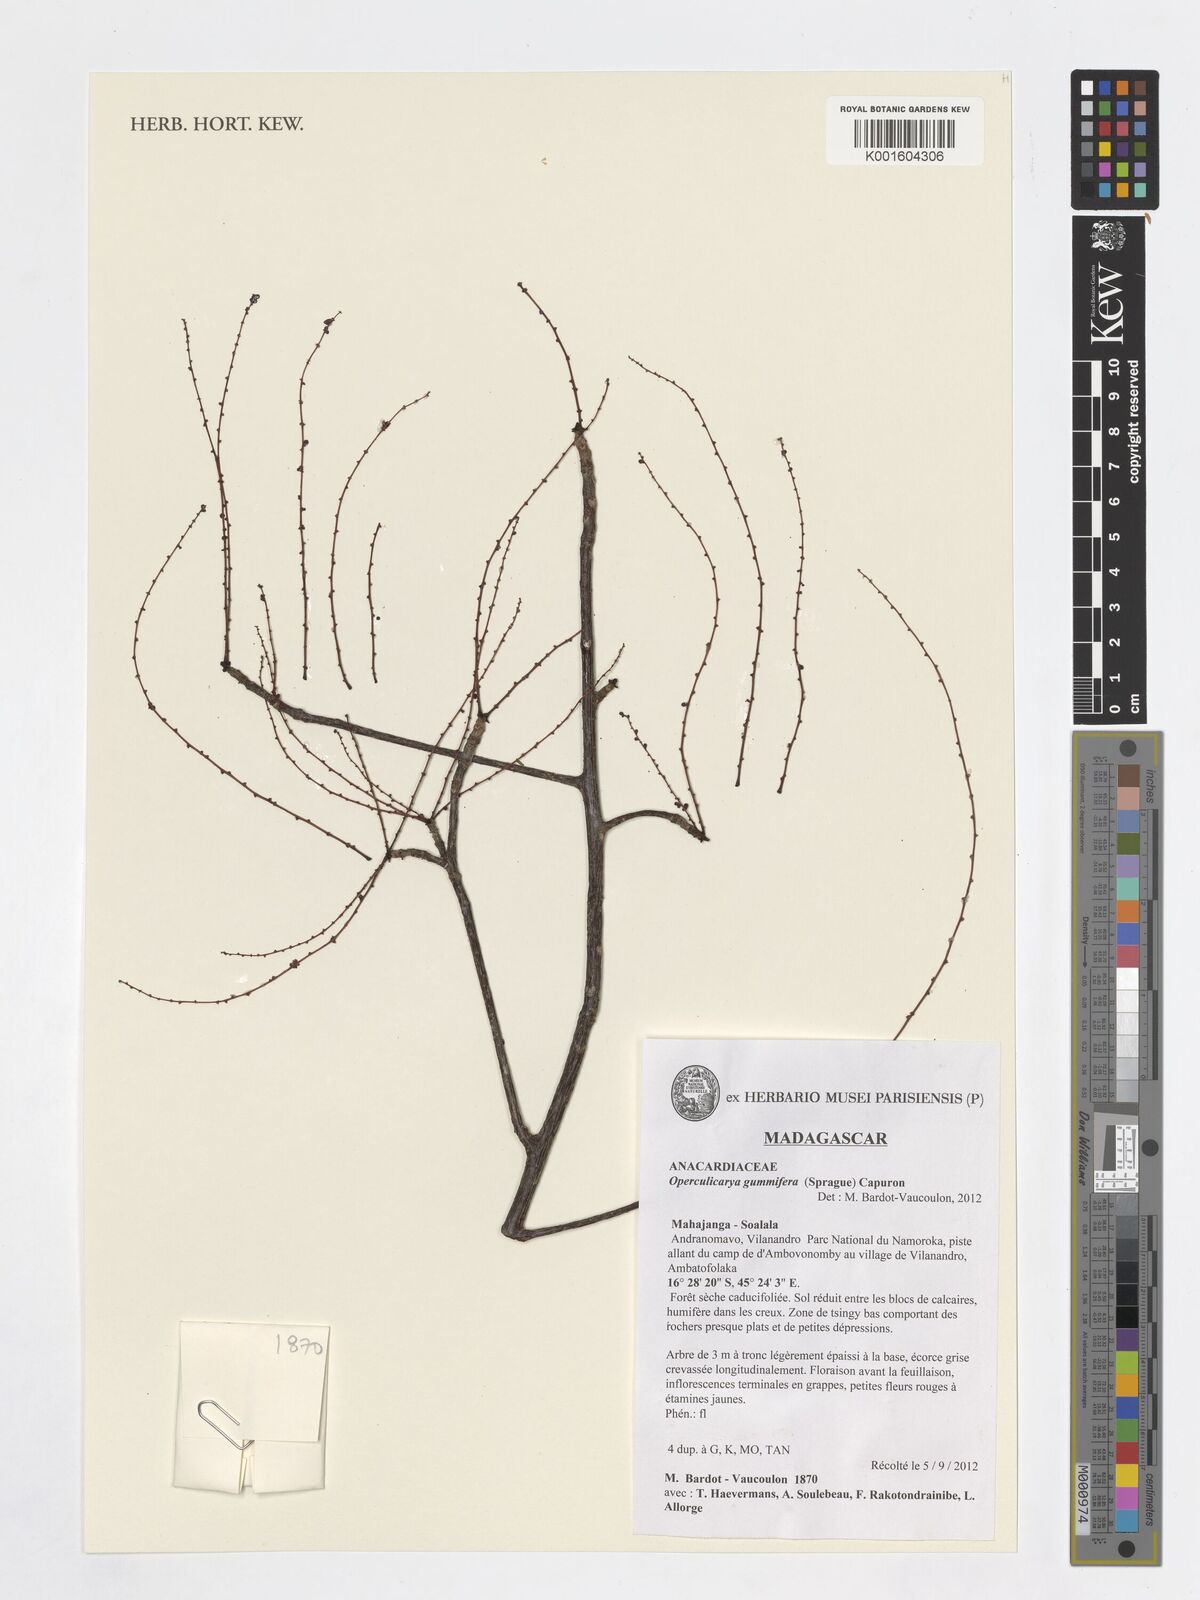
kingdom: Plantae
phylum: Tracheophyta
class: Magnoliopsida
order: Sapindales
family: Anacardiaceae
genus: Operculicarya
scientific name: Operculicarya gummifera
